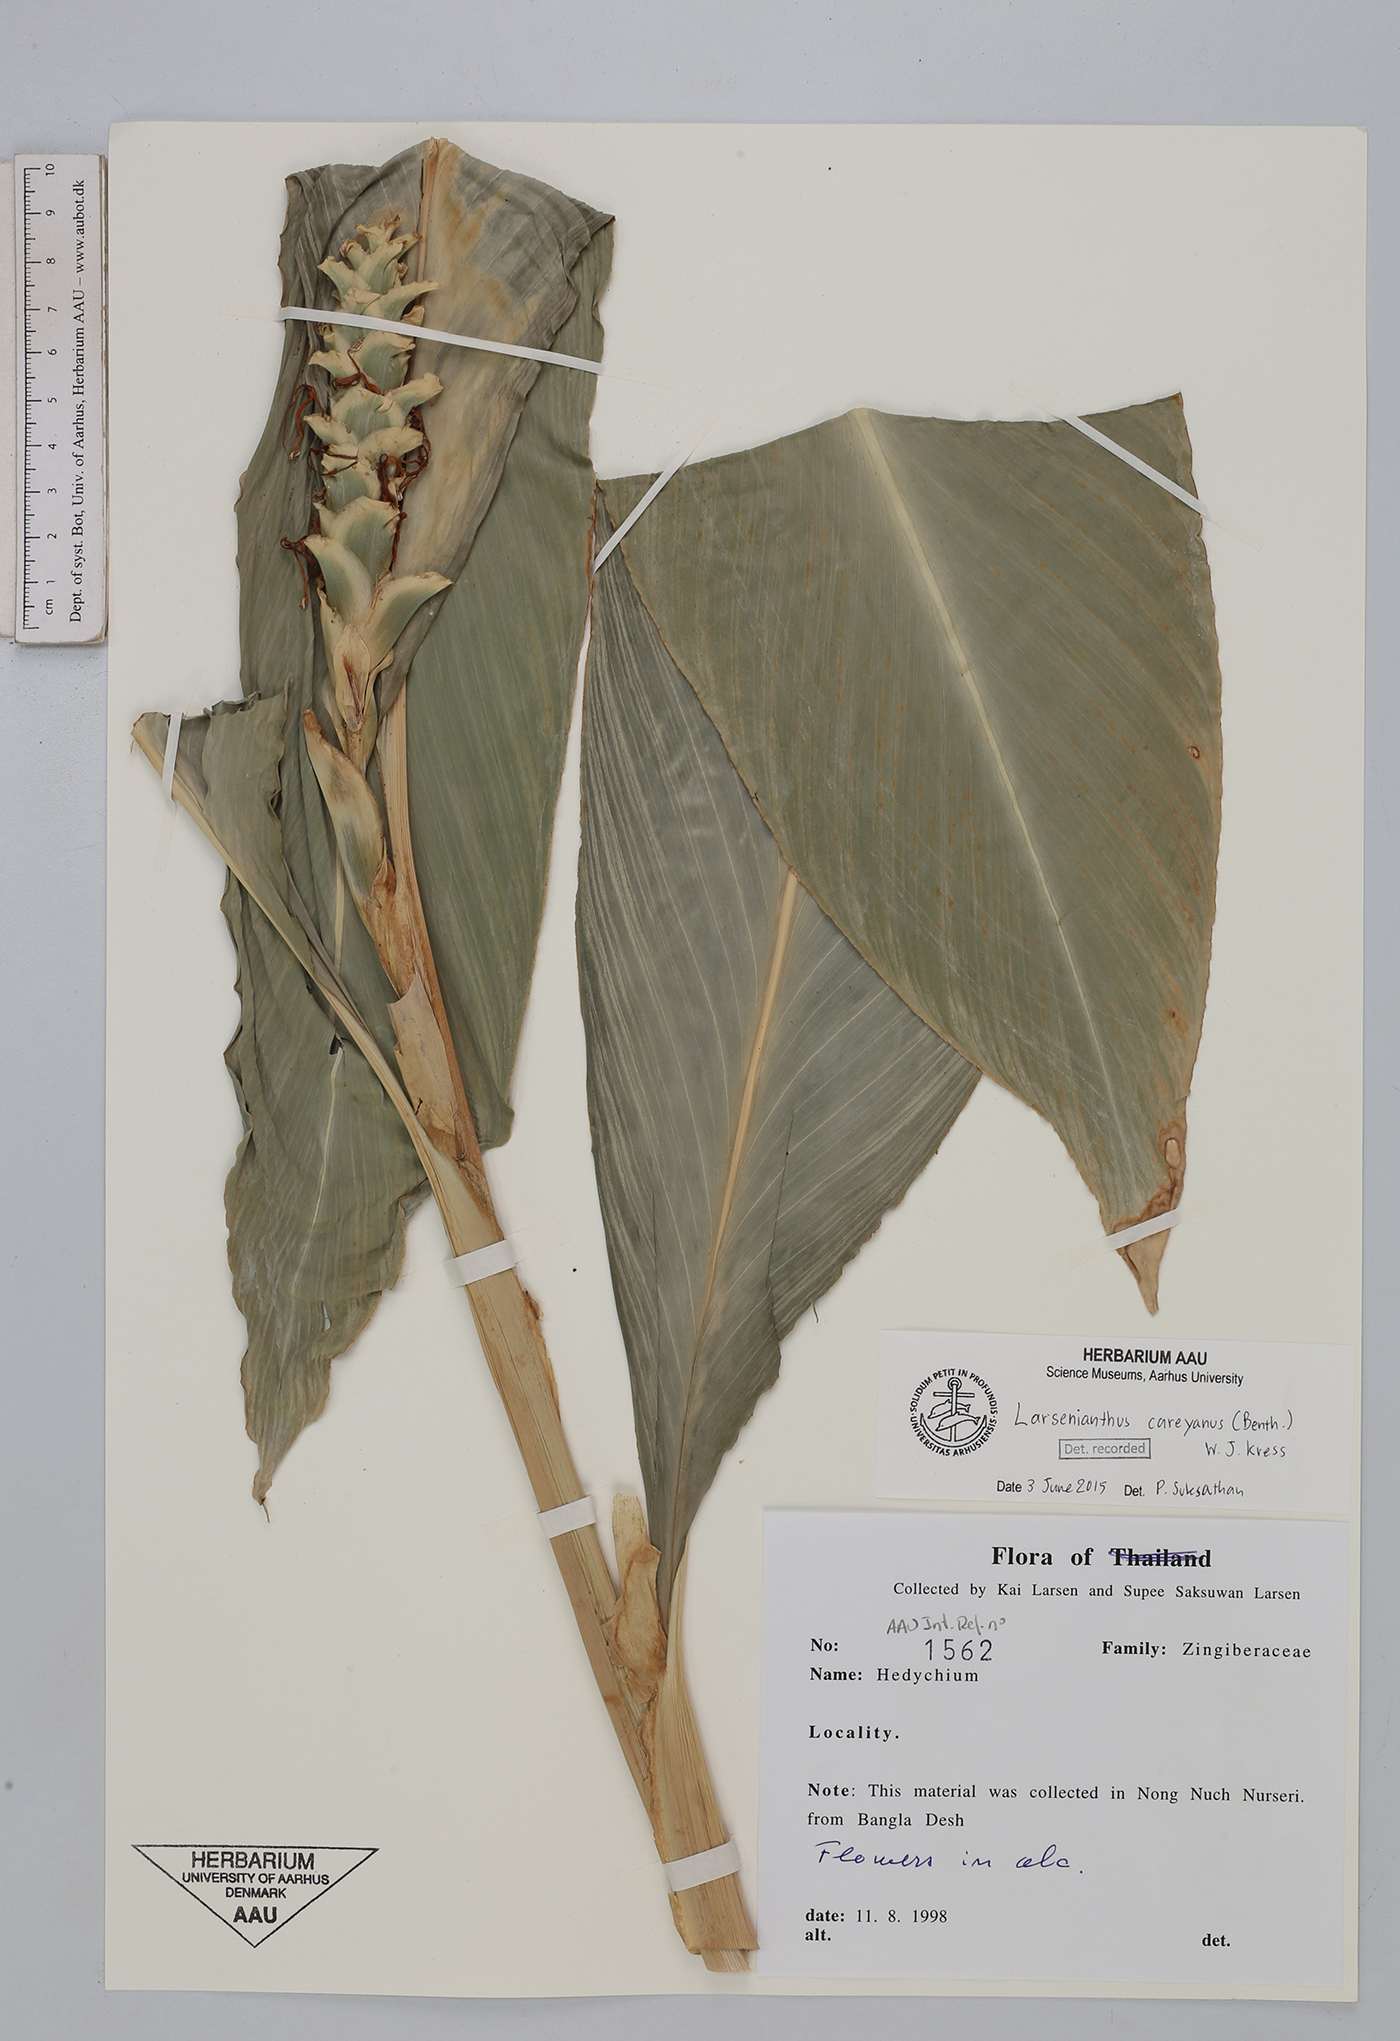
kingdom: Plantae
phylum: Tracheophyta
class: Liliopsida
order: Zingiberales
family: Zingiberaceae
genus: Larsenianthus
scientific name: Larsenianthus careyanus
